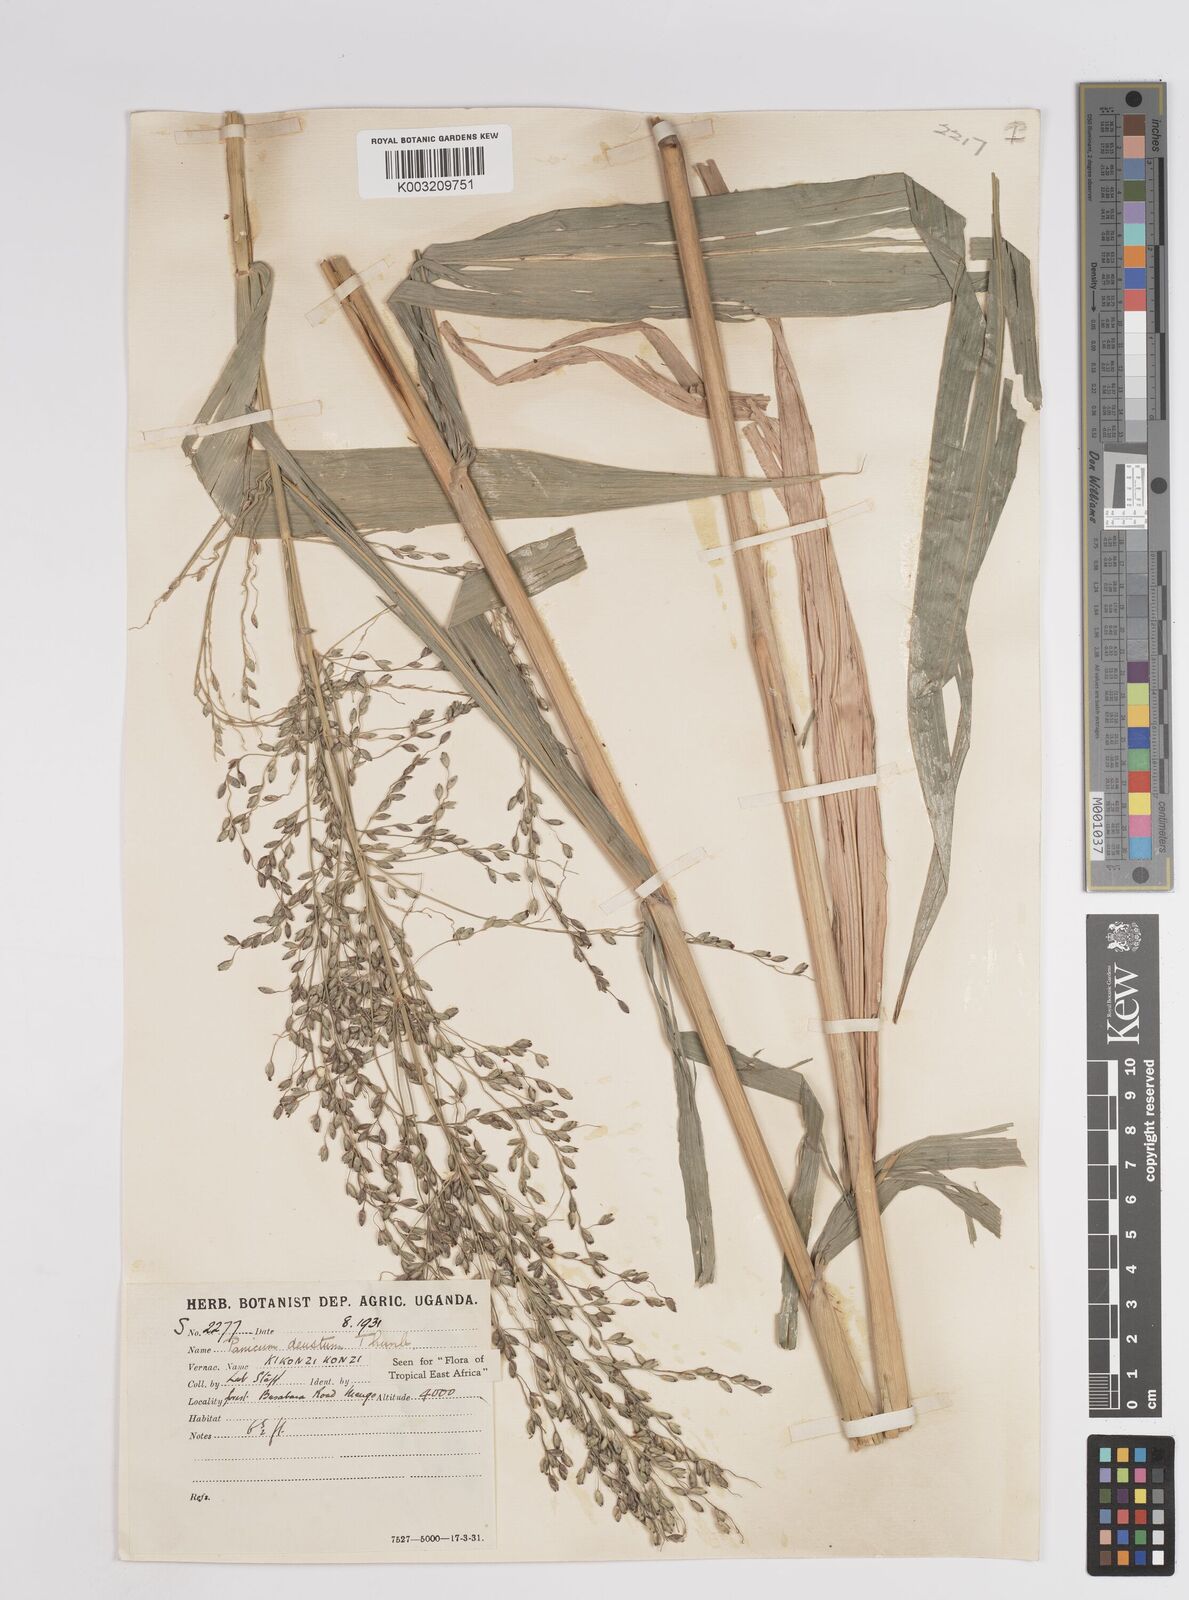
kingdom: Plantae
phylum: Tracheophyta
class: Liliopsida
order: Poales
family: Poaceae
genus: Panicum
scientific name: Panicum
